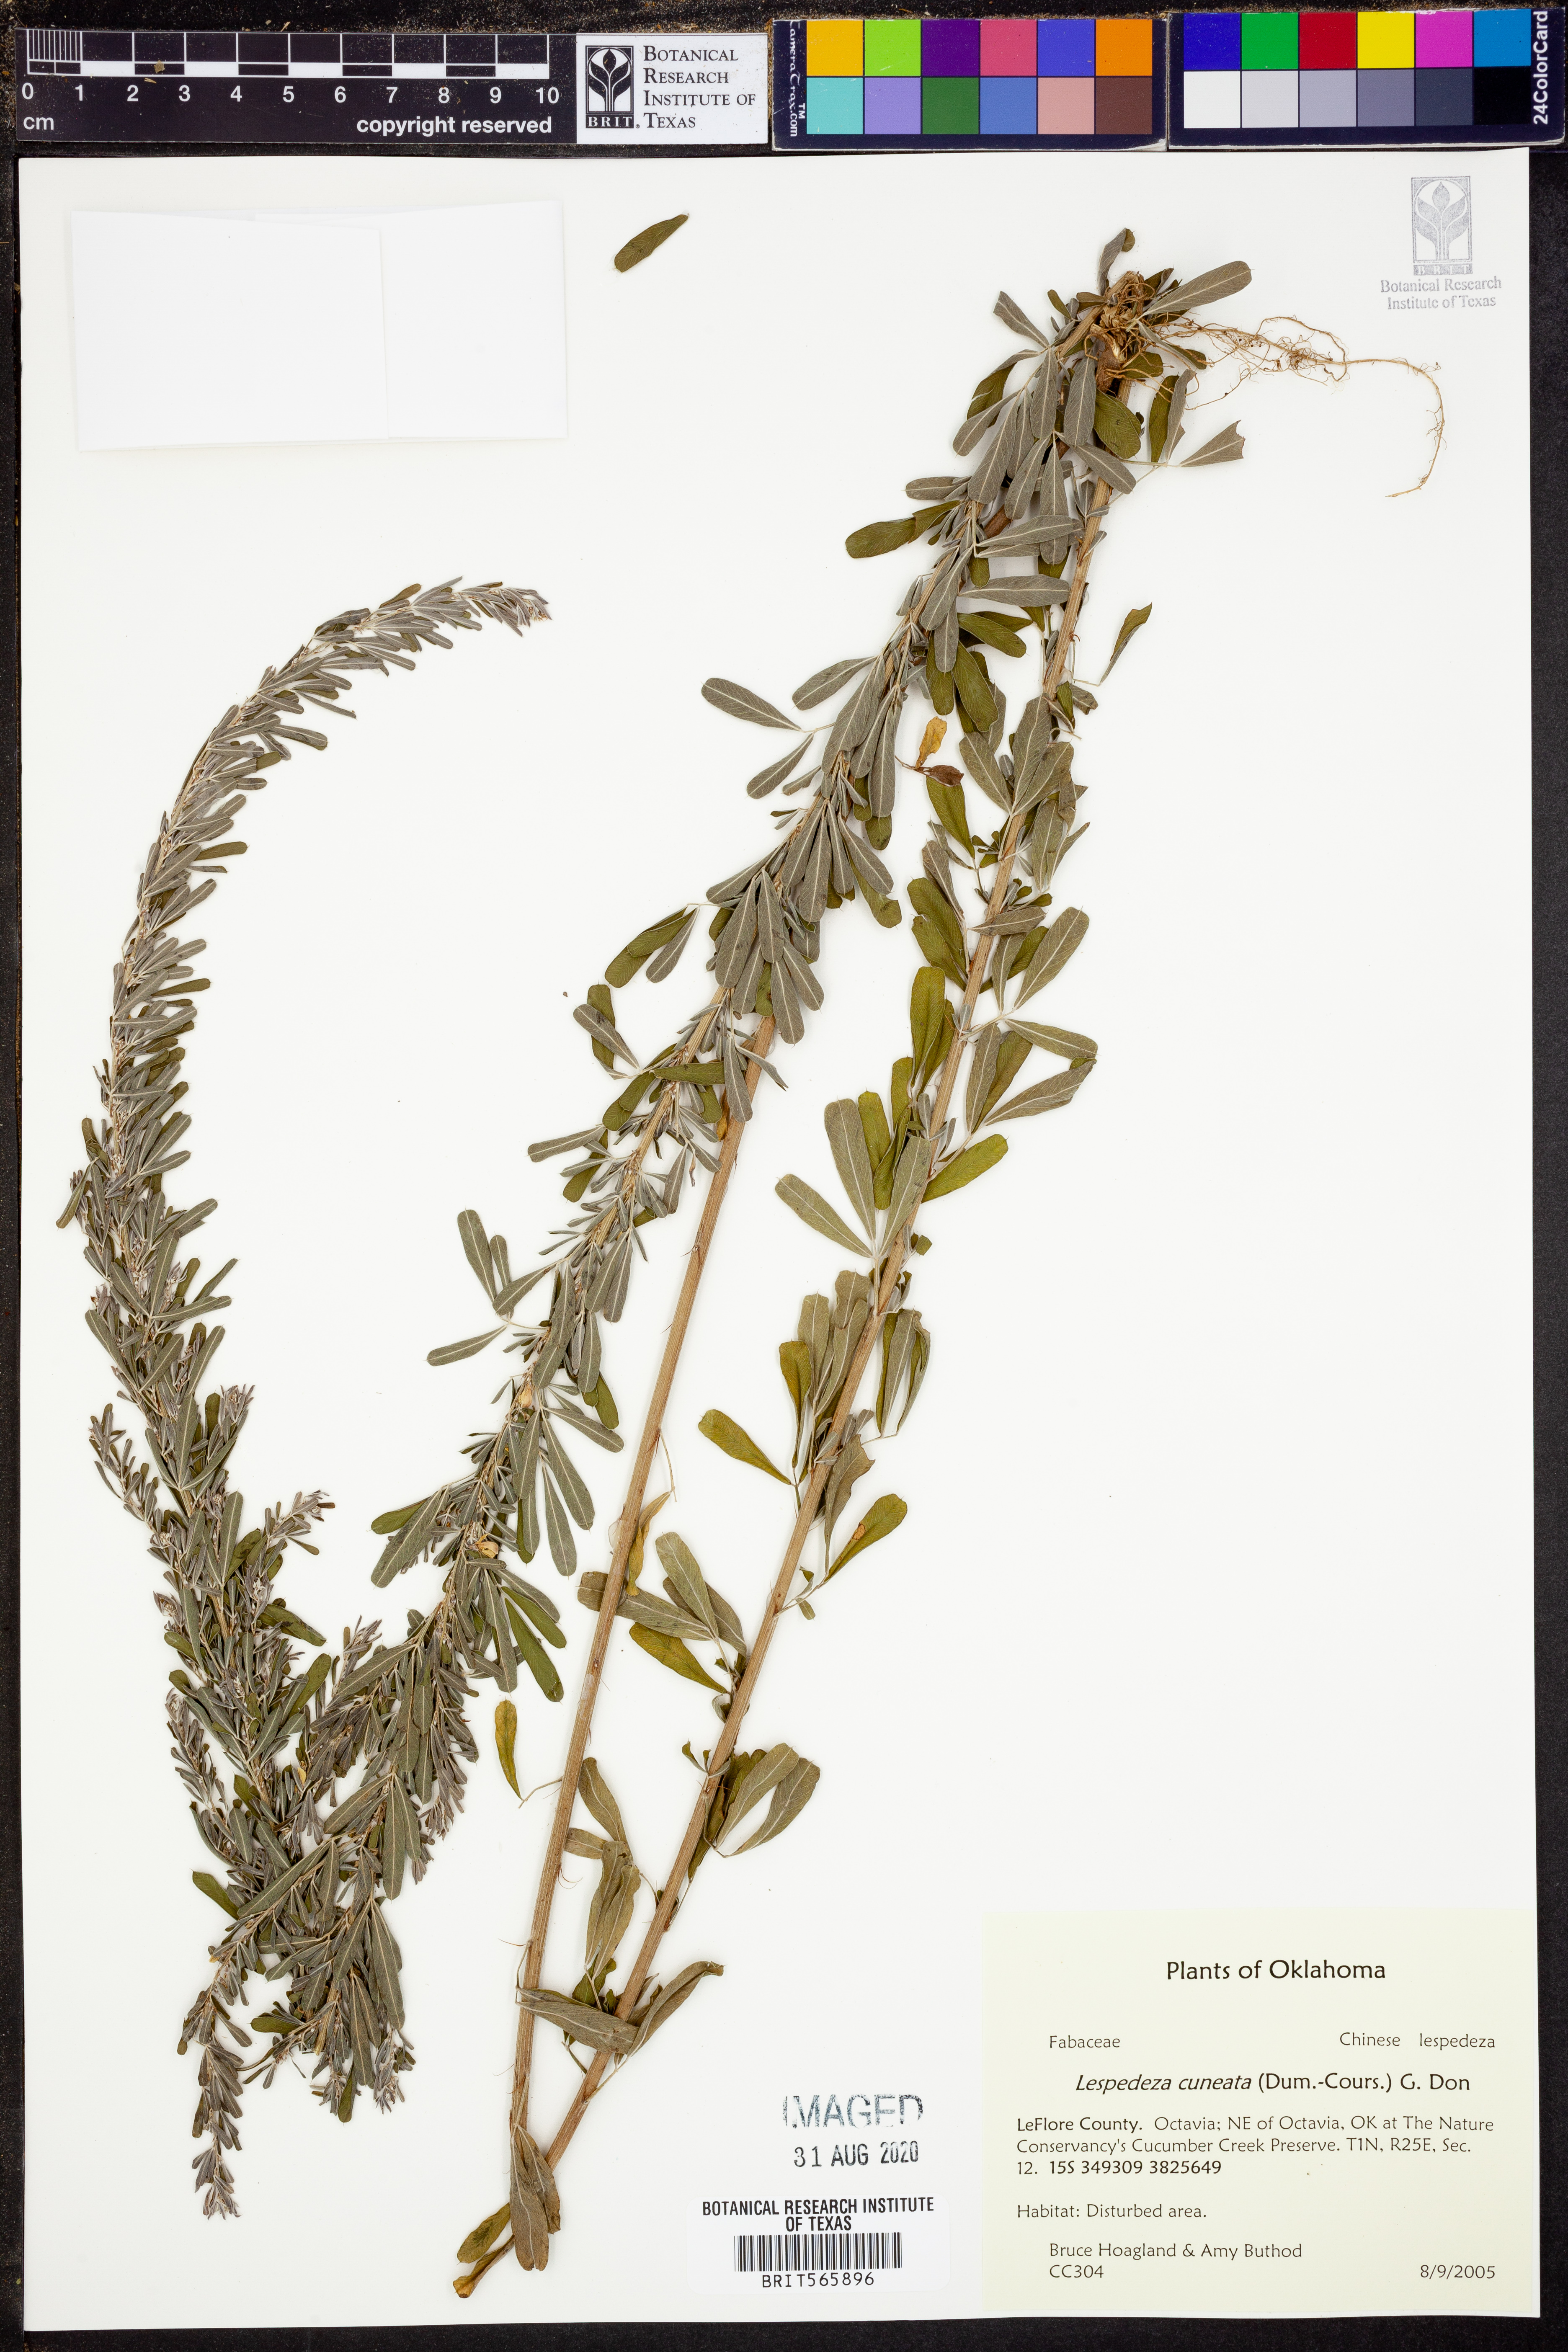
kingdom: Plantae
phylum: Tracheophyta
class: Magnoliopsida
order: Fabales
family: Fabaceae
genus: Lespedeza
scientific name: Lespedeza cuneata
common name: Chinese bush-clover
